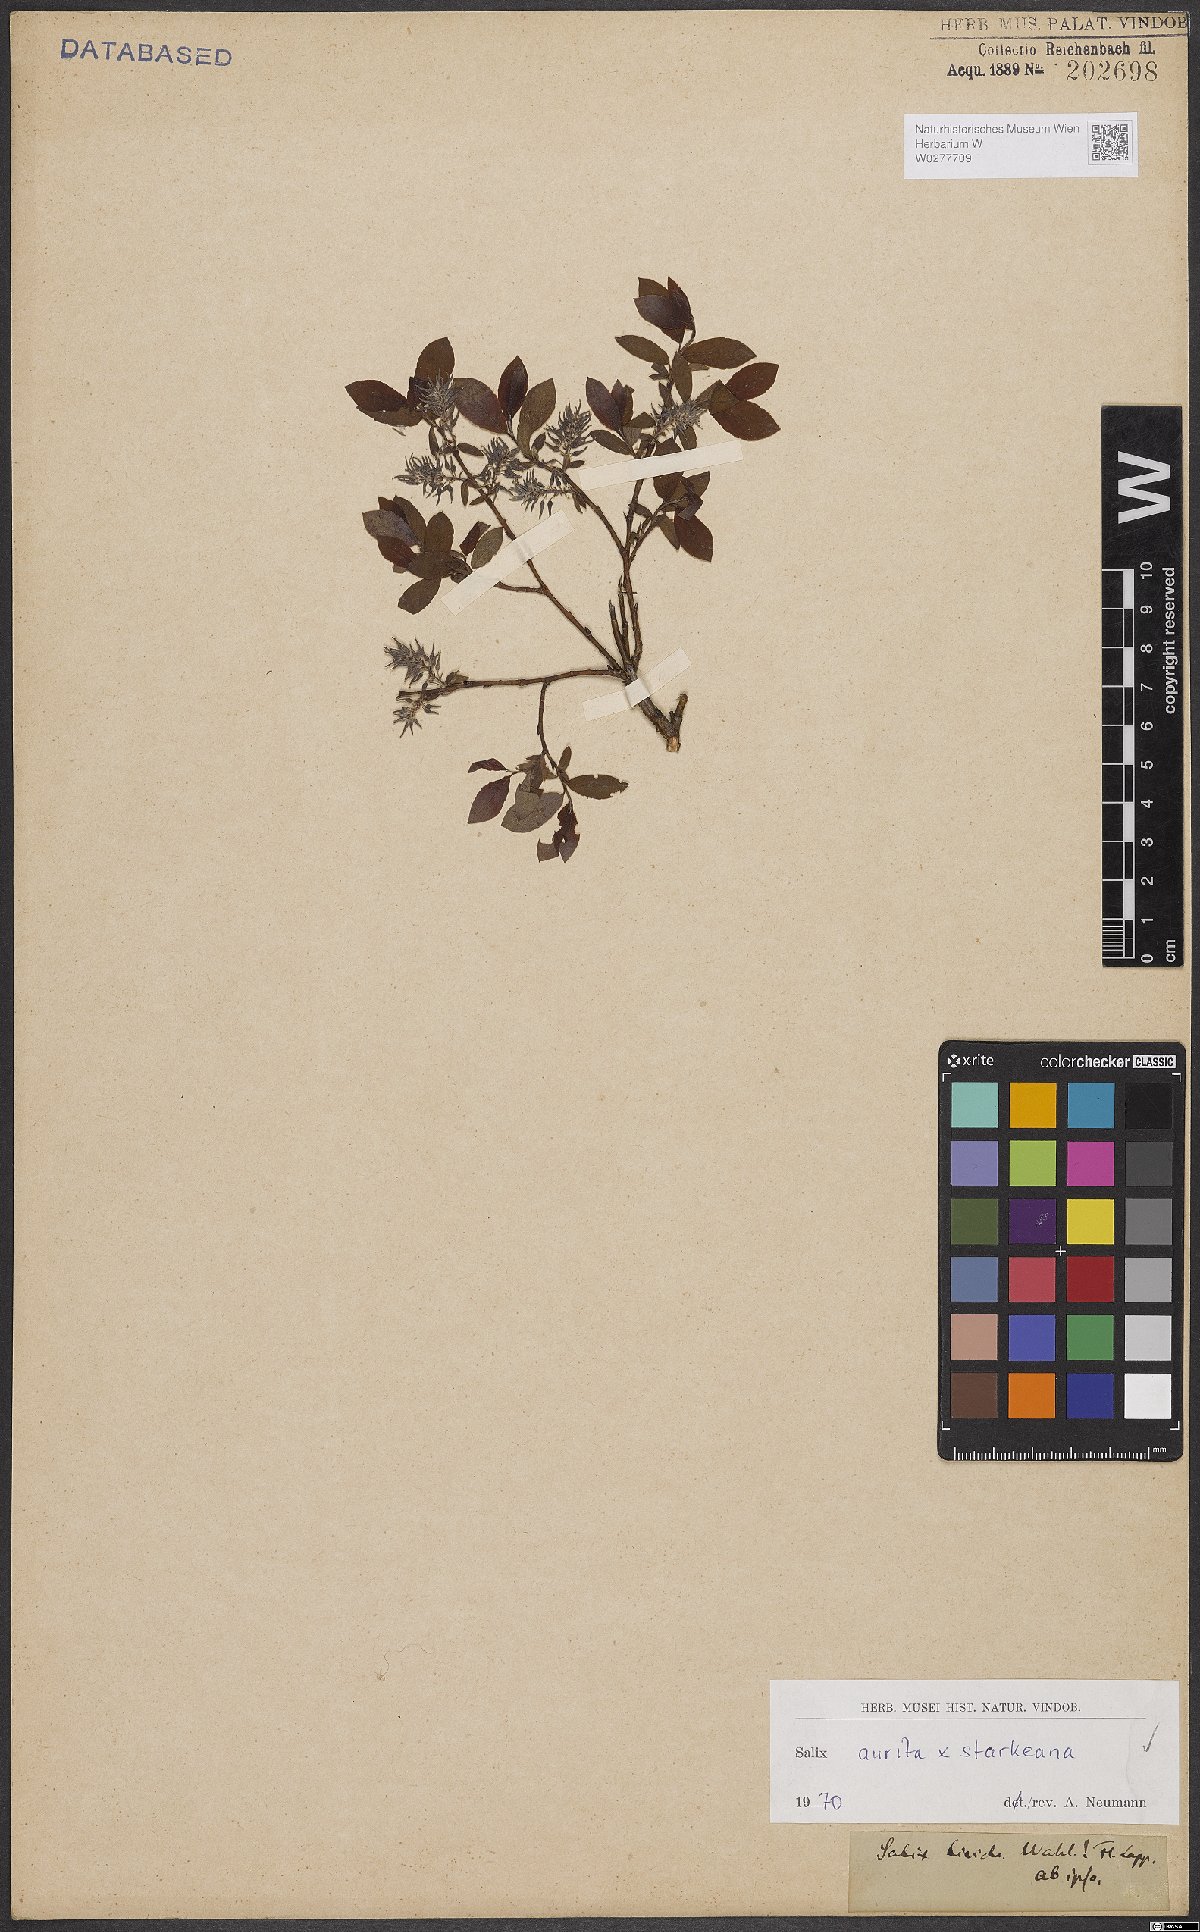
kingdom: Plantae
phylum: Tracheophyta
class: Magnoliopsida
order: Malpighiales
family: Salicaceae
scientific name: Salicaceae
